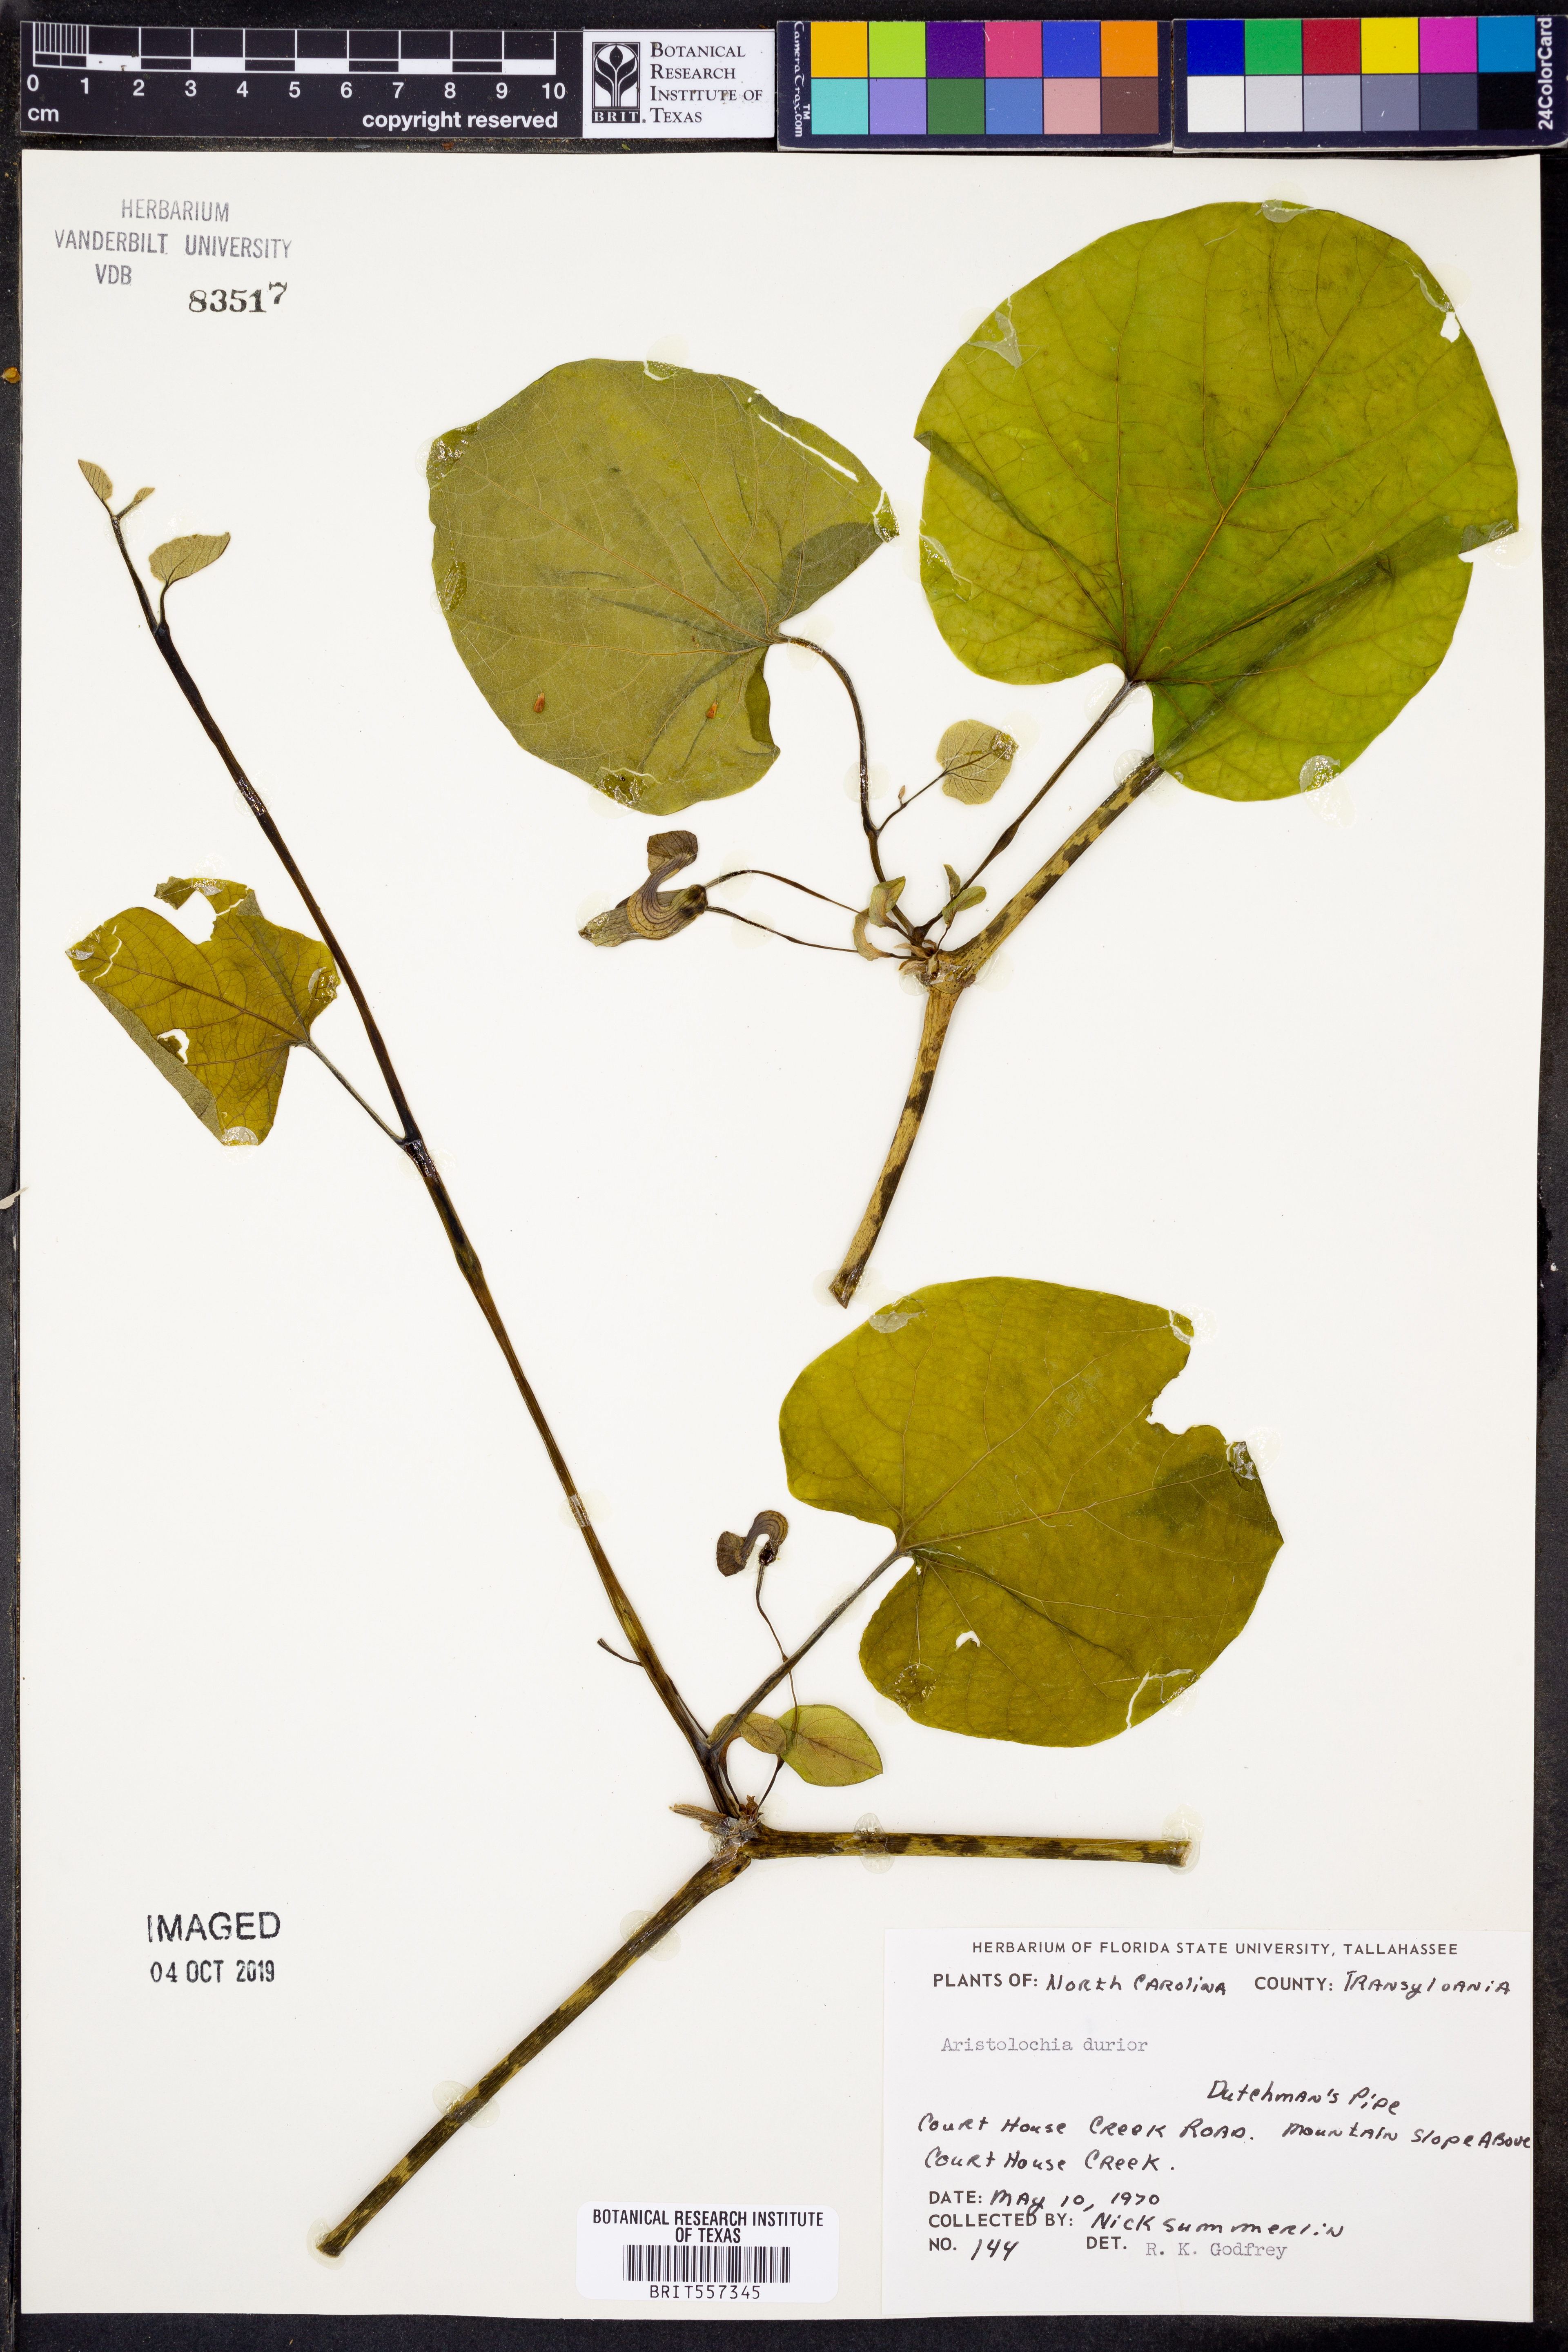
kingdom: Plantae
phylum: Tracheophyta
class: Magnoliopsida
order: Lamiales
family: Bignoniaceae
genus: Bignonia
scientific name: Bignonia capreolata
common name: Crossvine
